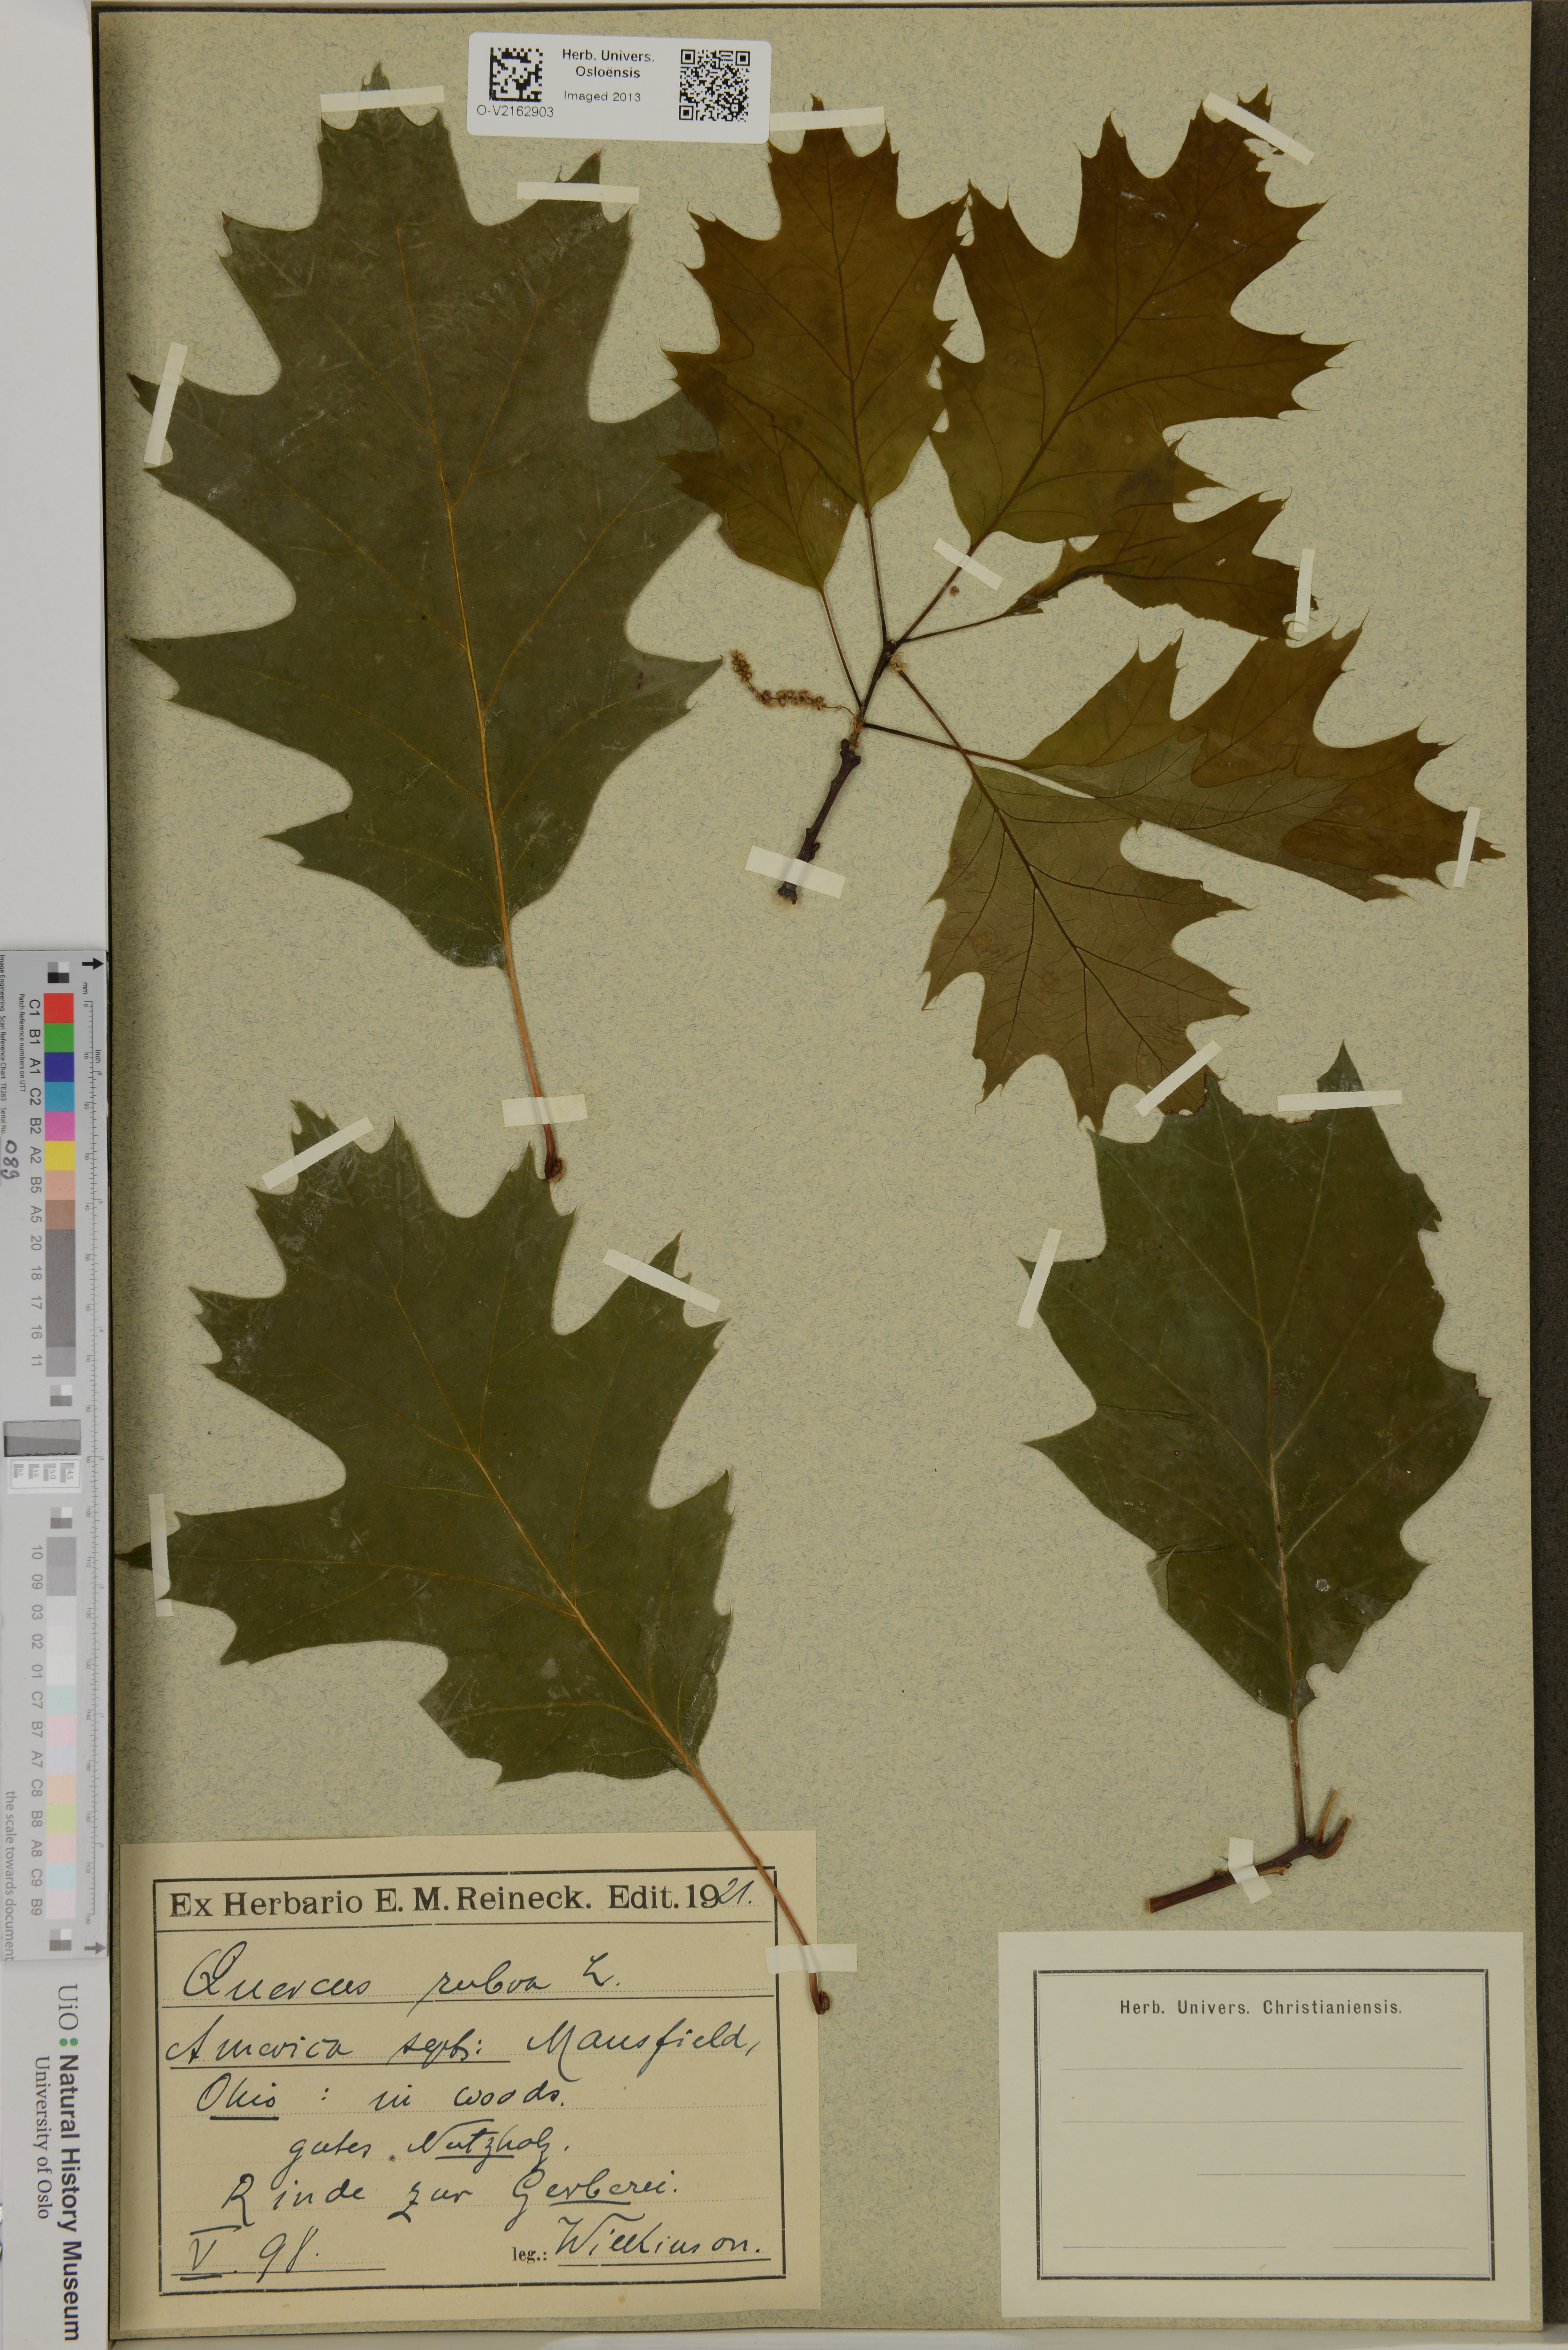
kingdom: Plantae
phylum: Tracheophyta
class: Magnoliopsida
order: Fagales
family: Fagaceae
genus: Quercus
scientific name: Quercus rubra
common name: Red oak
